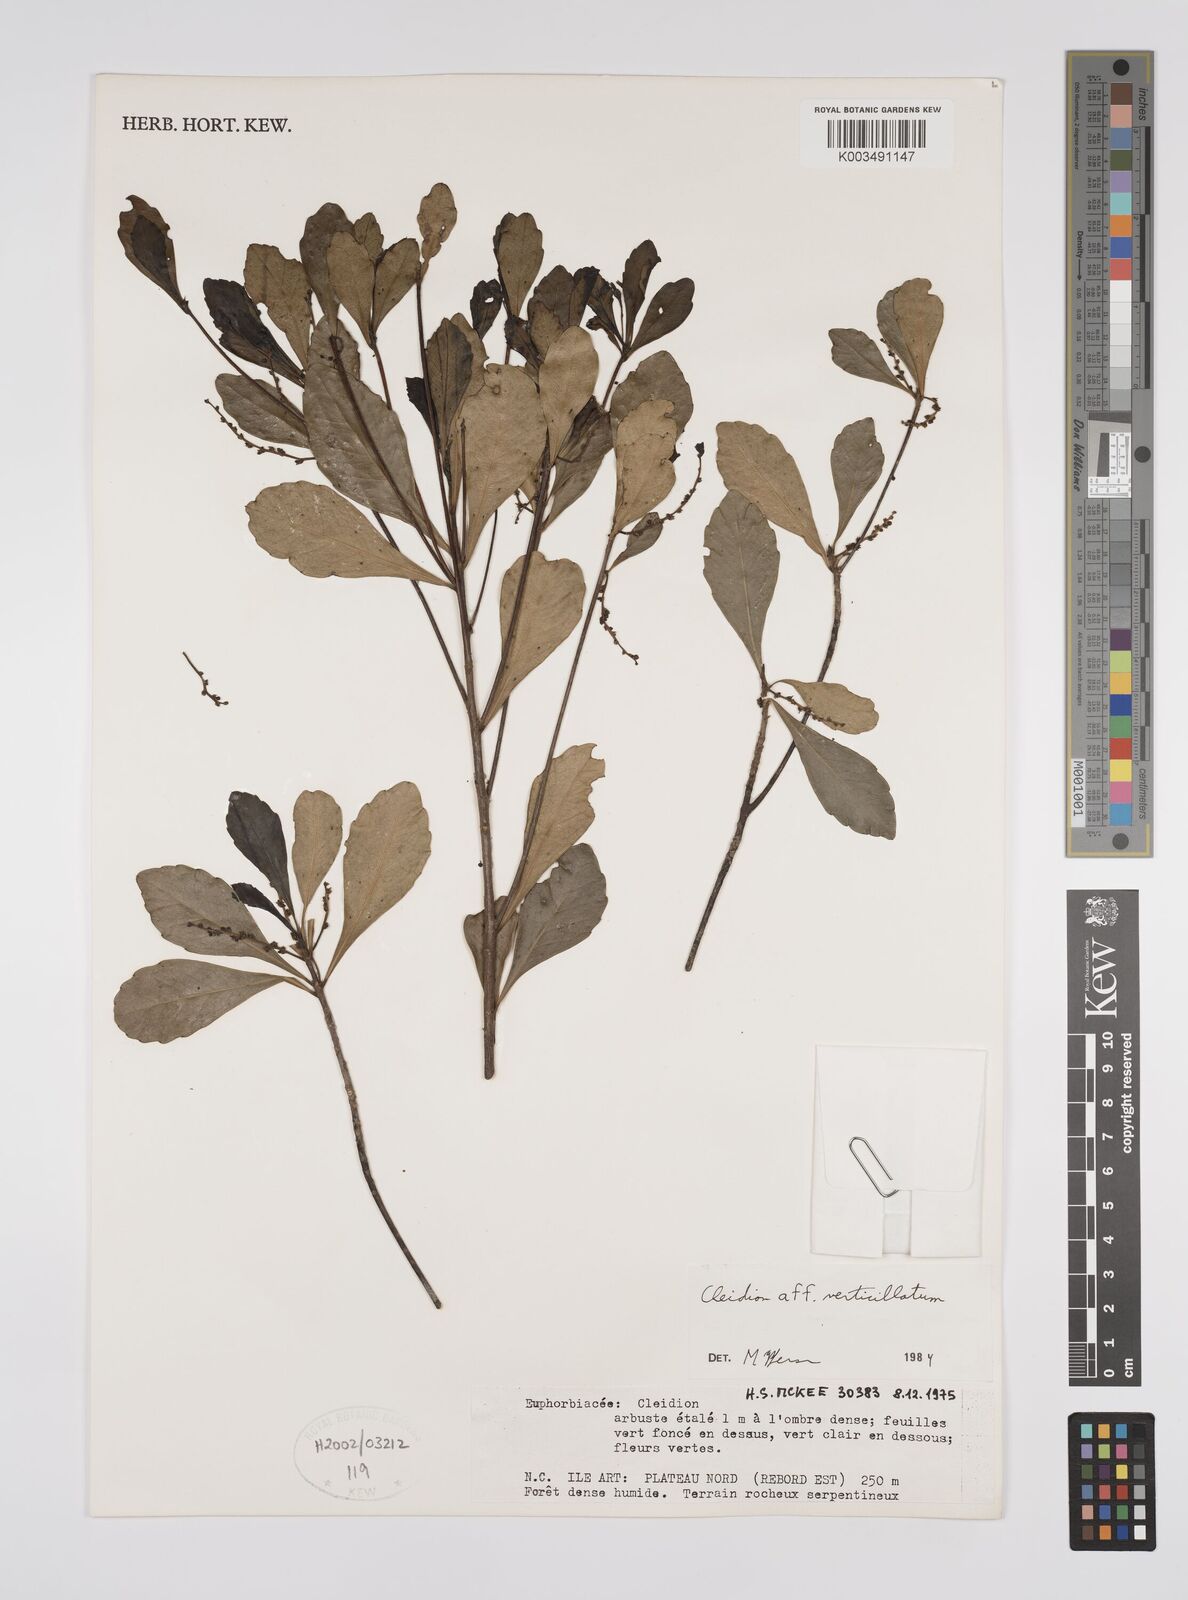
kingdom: Plantae
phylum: Tracheophyta
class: Magnoliopsida
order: Malpighiales
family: Euphorbiaceae
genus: Cleidion
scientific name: Cleidion verticillatum
